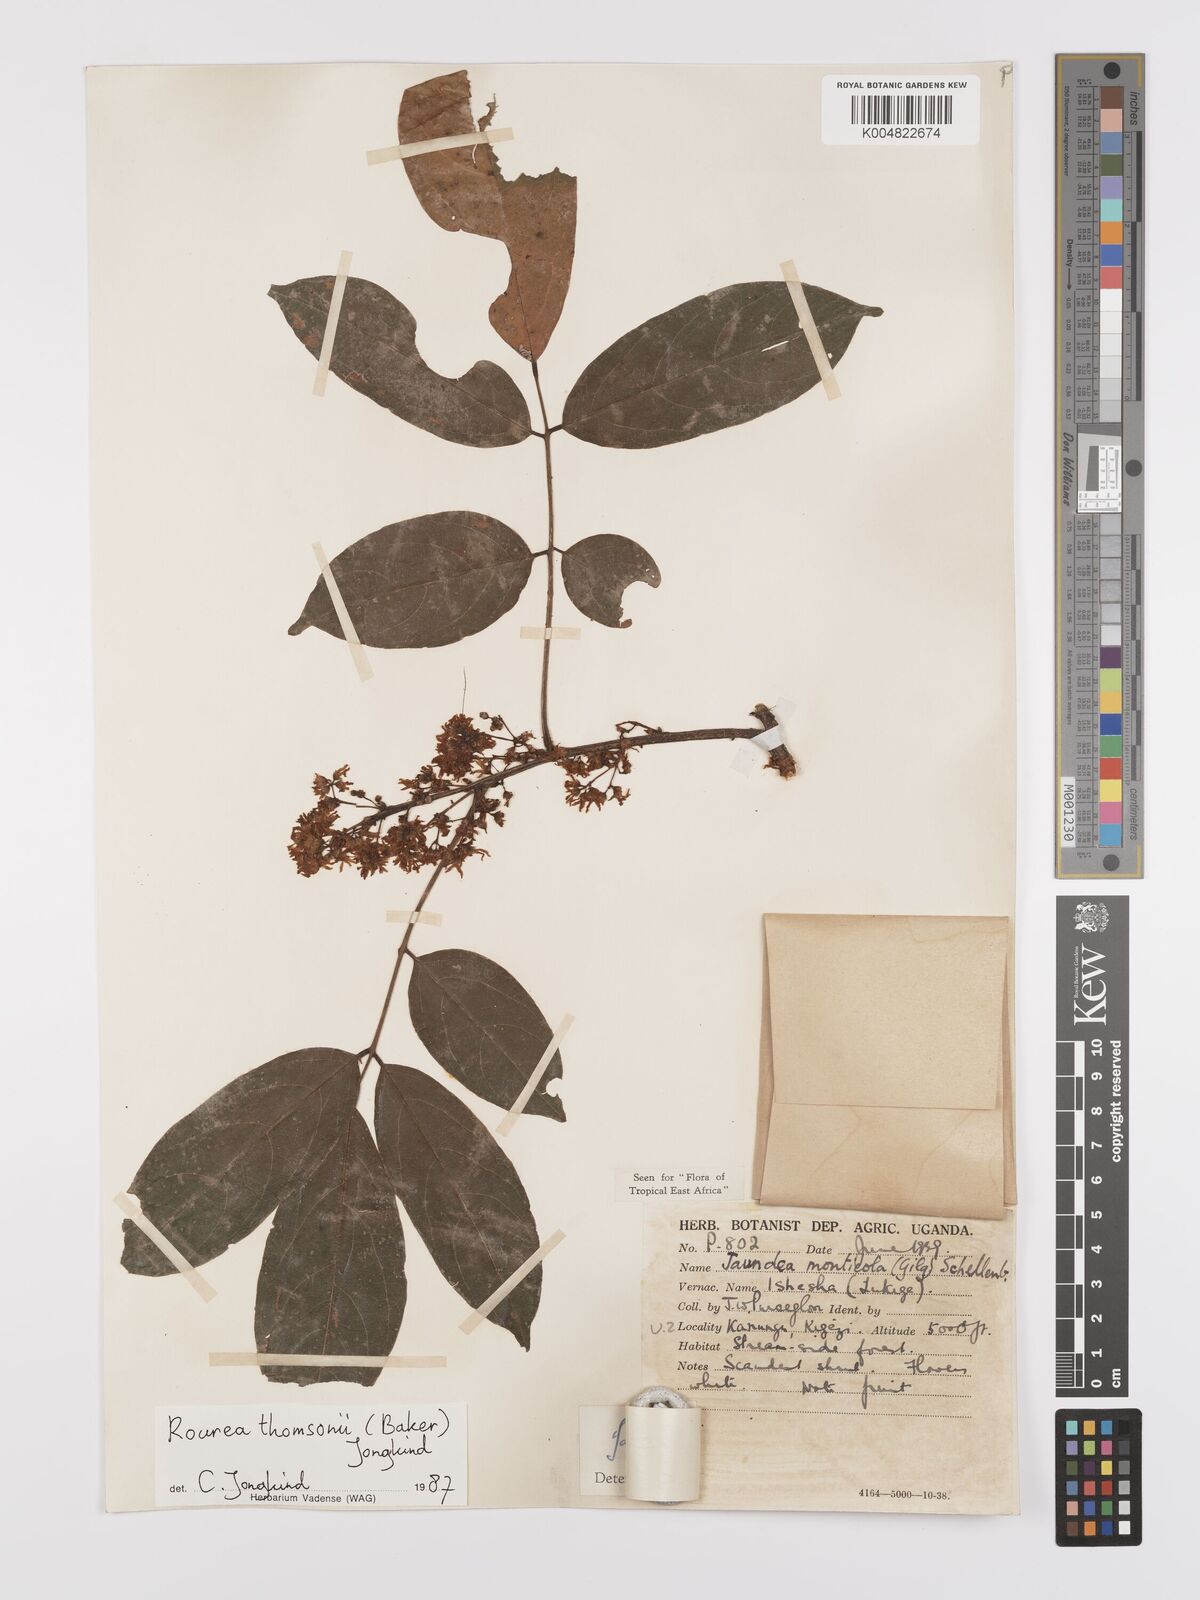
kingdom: Plantae
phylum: Tracheophyta
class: Magnoliopsida
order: Oxalidales
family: Connaraceae
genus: Rourea
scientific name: Rourea pinnata
